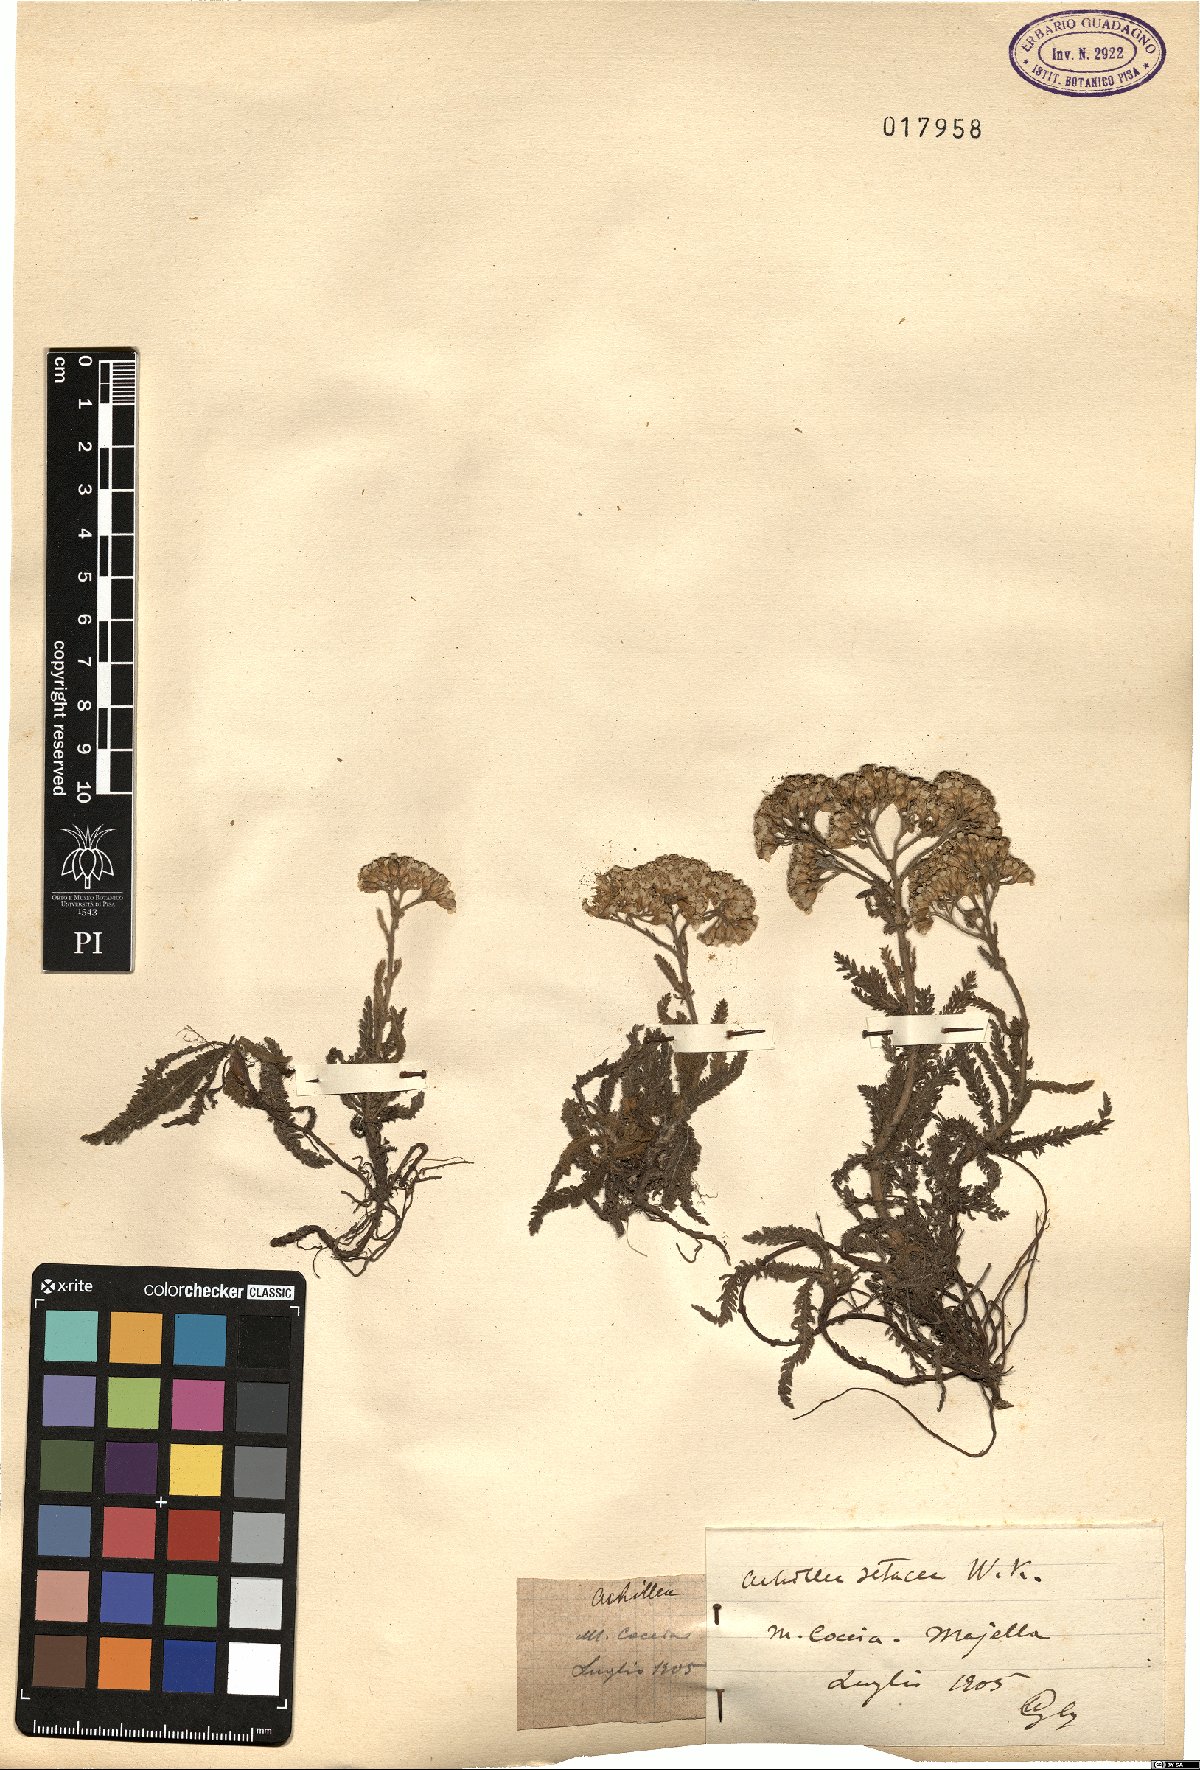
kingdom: Plantae
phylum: Tracheophyta
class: Magnoliopsida
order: Asterales
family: Asteraceae
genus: Achillea
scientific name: Achillea setacea
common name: Bristly yarrow
